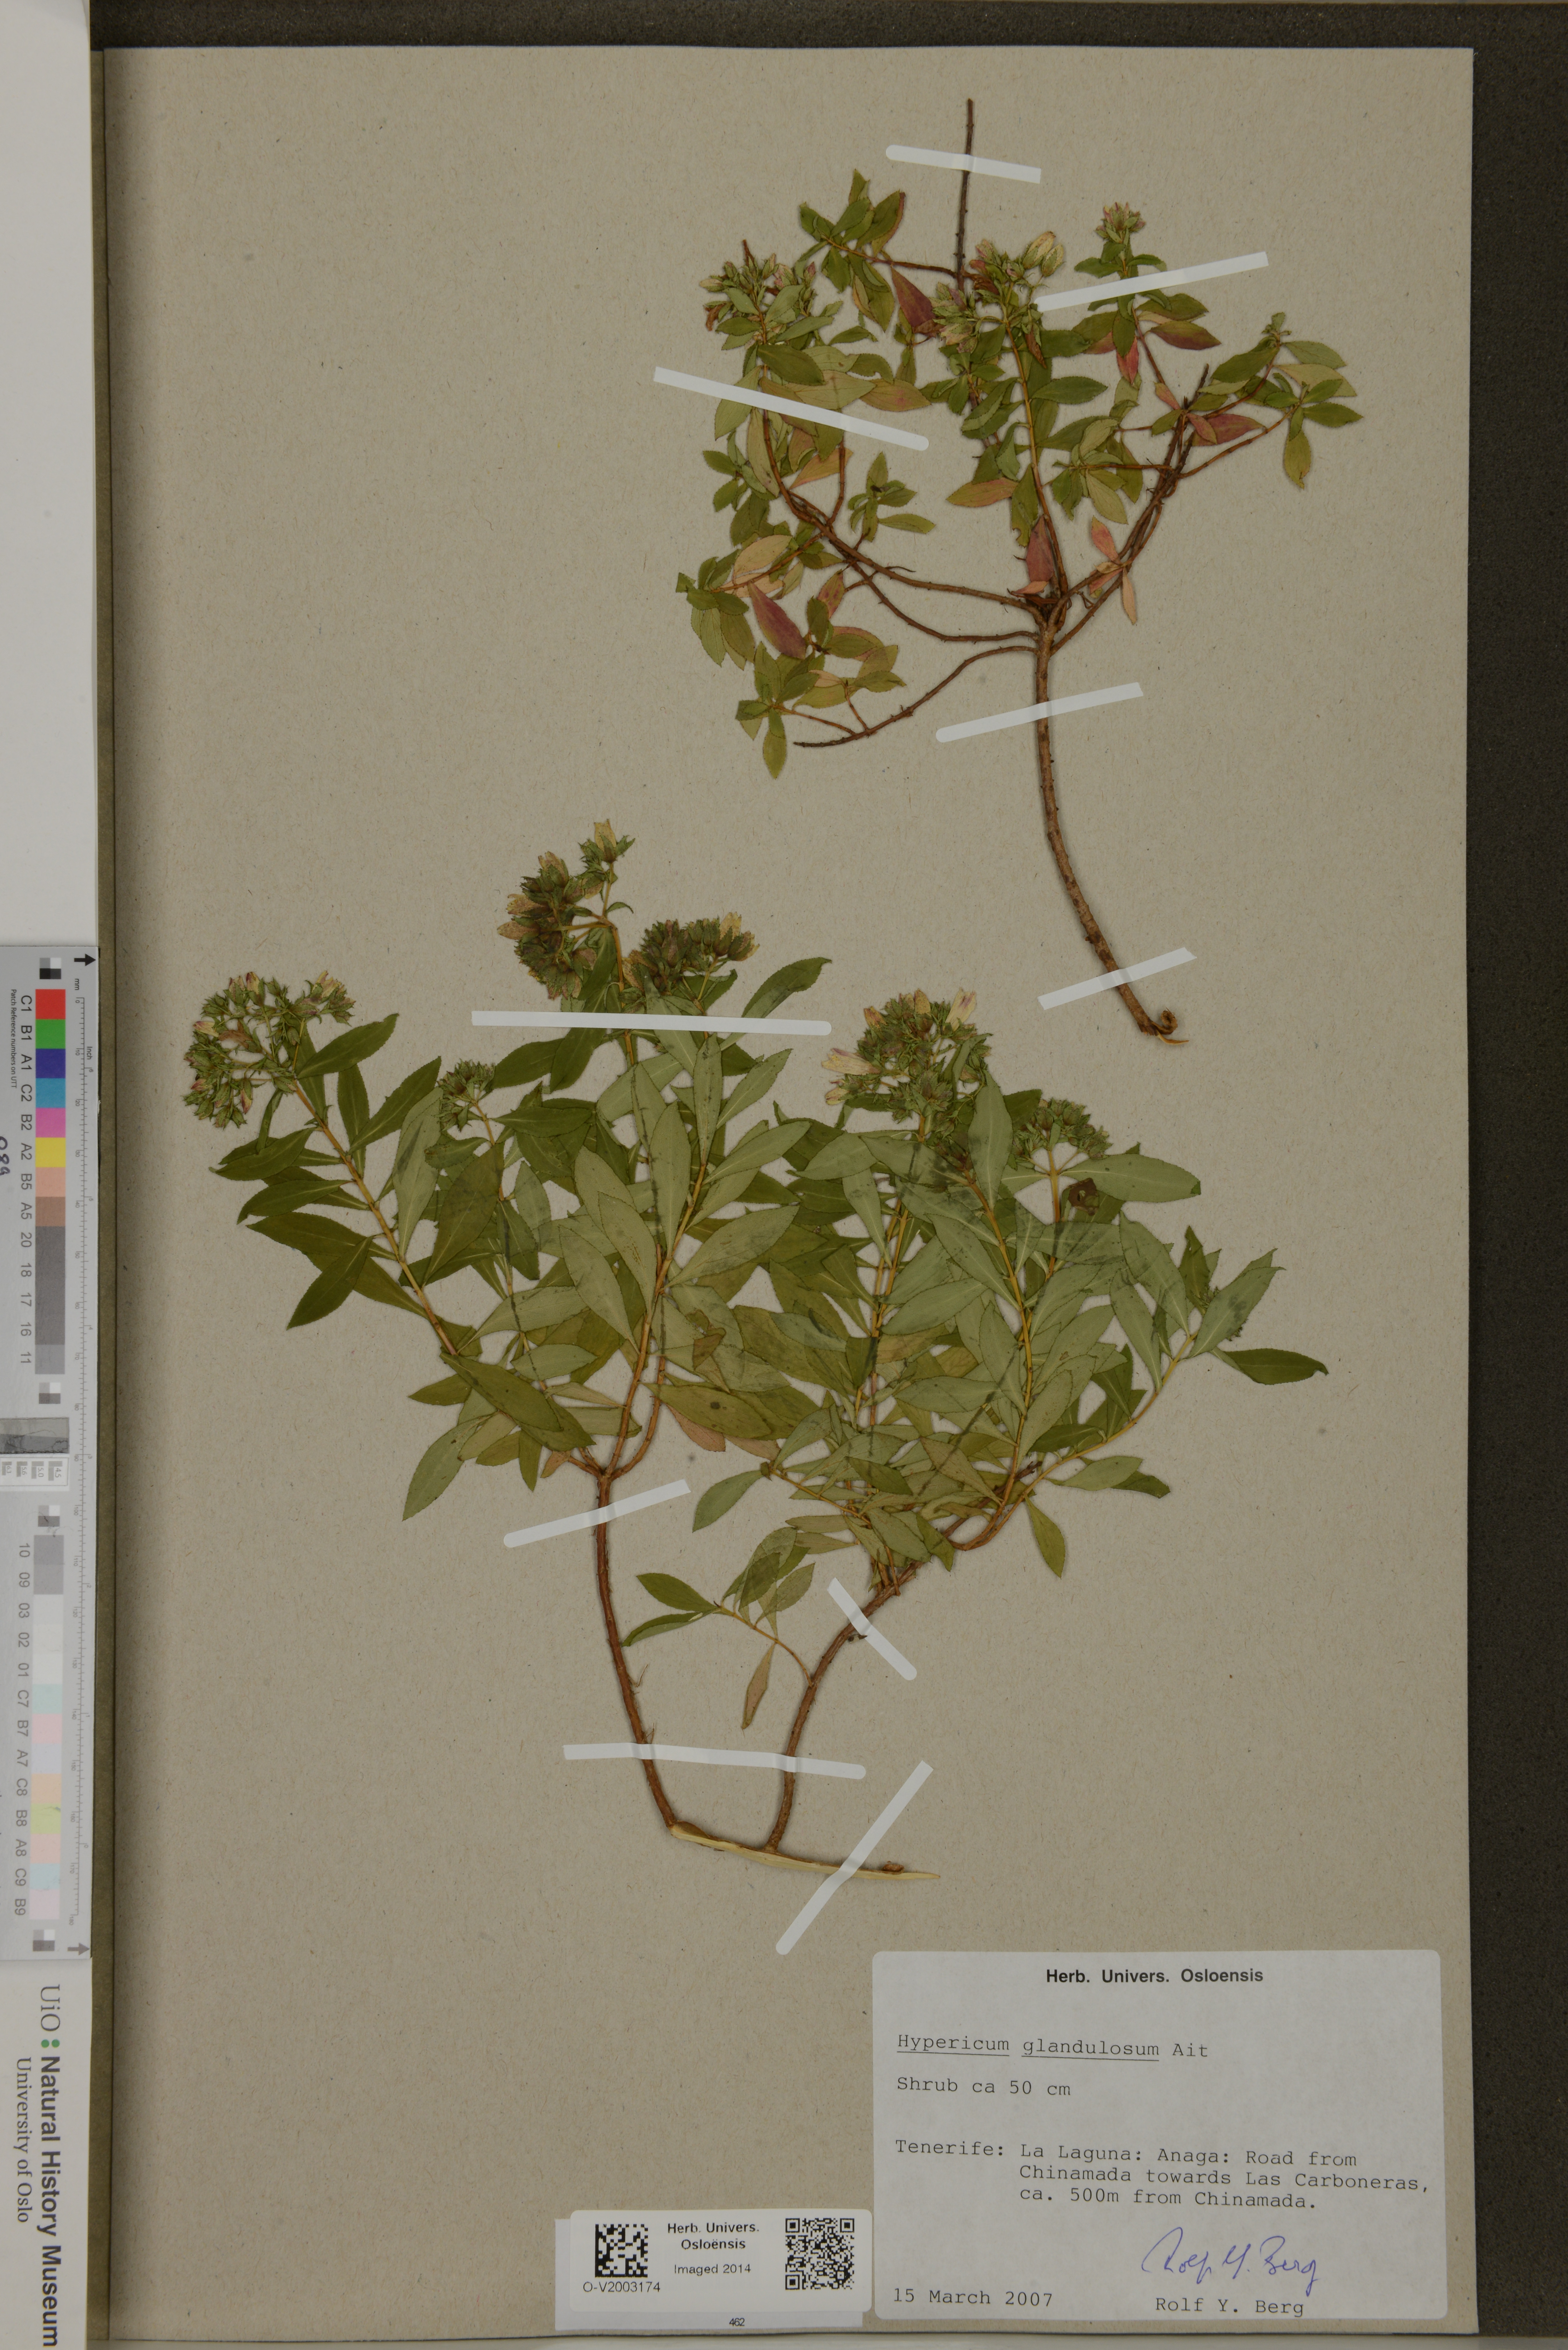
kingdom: Plantae
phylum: Tracheophyta
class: Magnoliopsida
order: Malpighiales
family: Hypericaceae
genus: Hypericum
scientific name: Hypericum glandulosum
